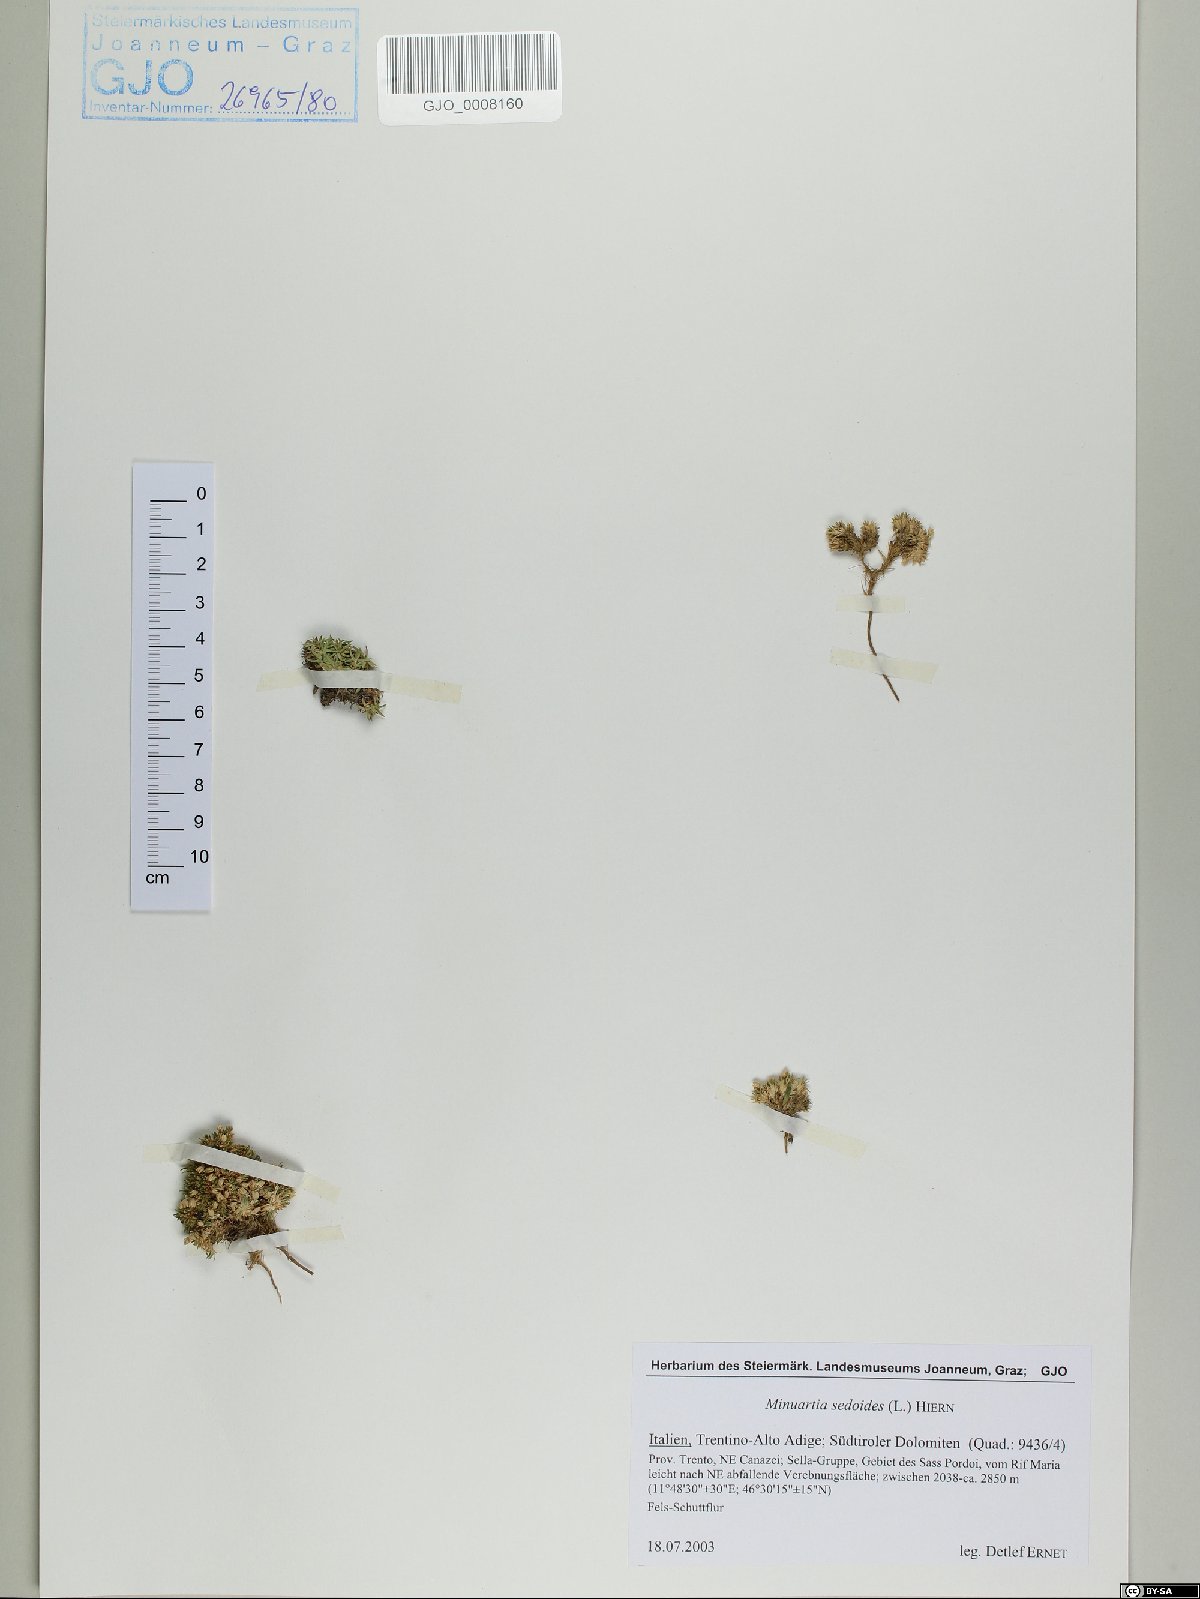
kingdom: Plantae
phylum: Tracheophyta
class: Magnoliopsida
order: Caryophyllales
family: Caryophyllaceae
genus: Cherleria
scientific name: Cherleria sedoides
